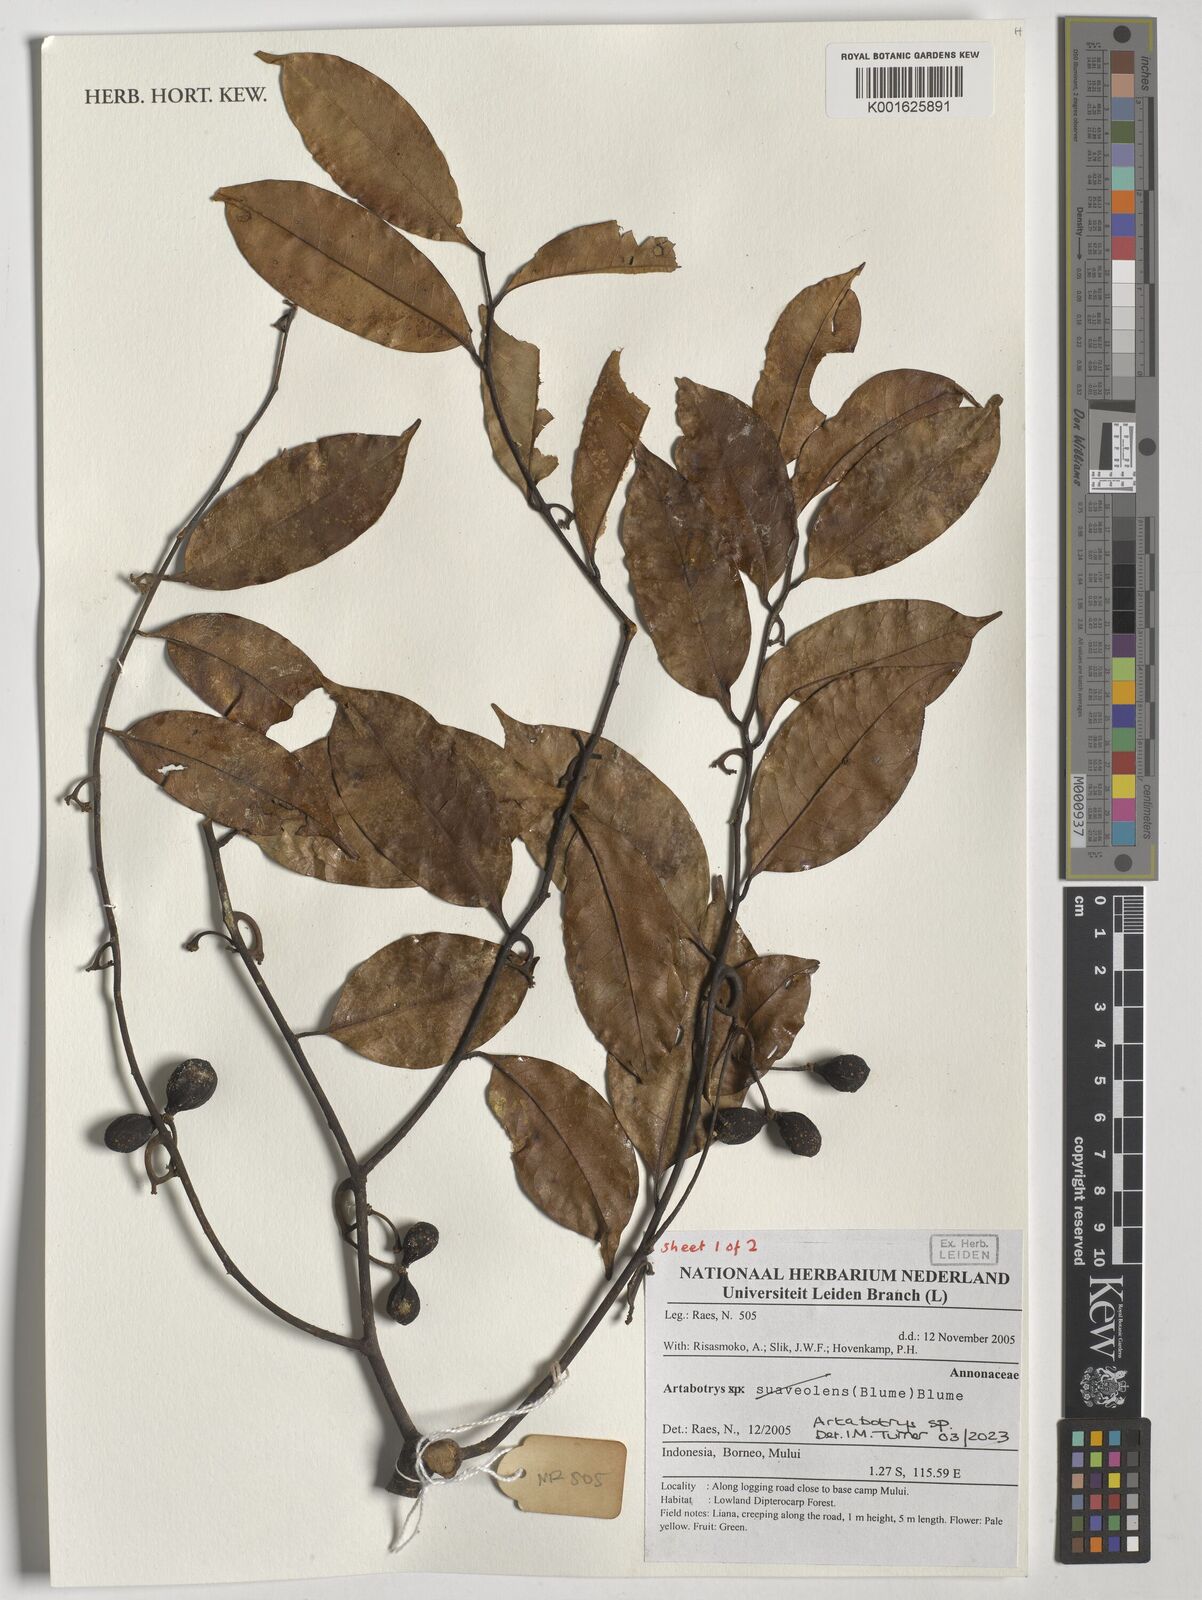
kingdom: Plantae
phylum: Tracheophyta
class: Magnoliopsida
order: Magnoliales
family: Annonaceae
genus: Artabotrys
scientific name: Artabotrys
